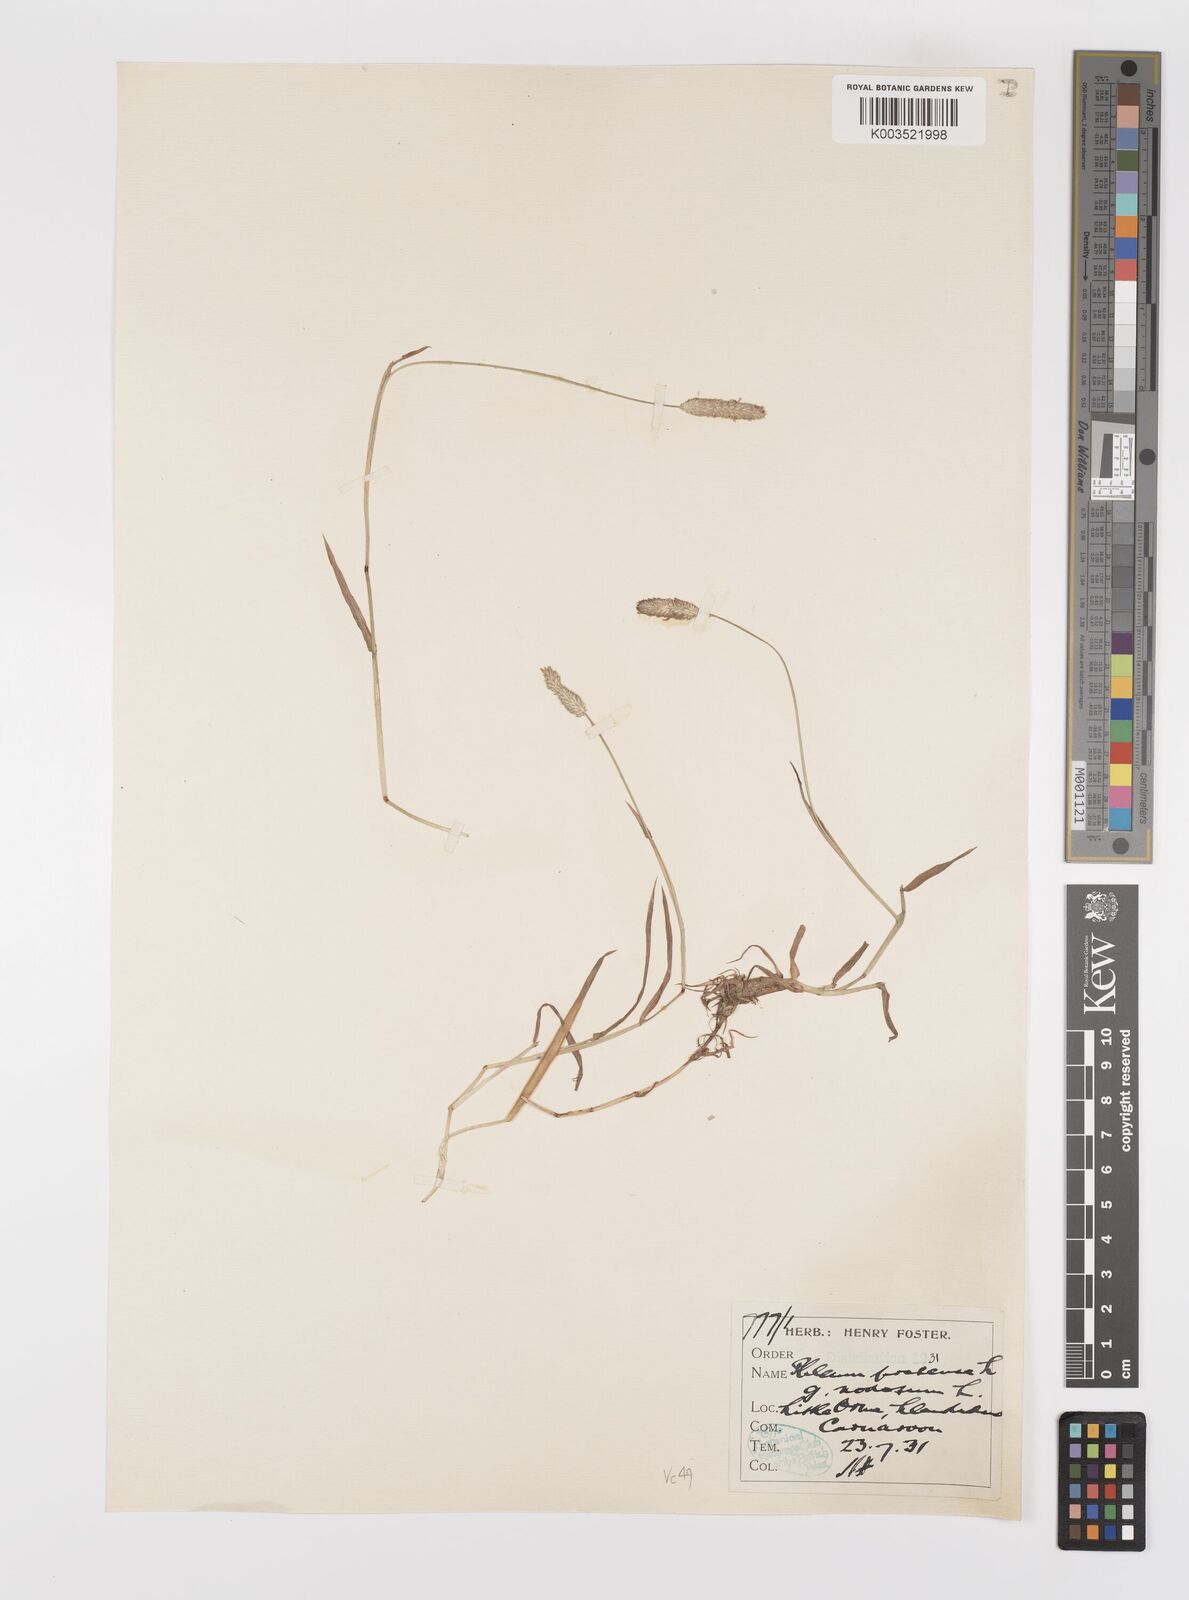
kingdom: Plantae
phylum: Tracheophyta
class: Liliopsida
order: Poales
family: Poaceae
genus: Phleum
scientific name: Phleum bertolonii
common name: Smaller cat's-tail
